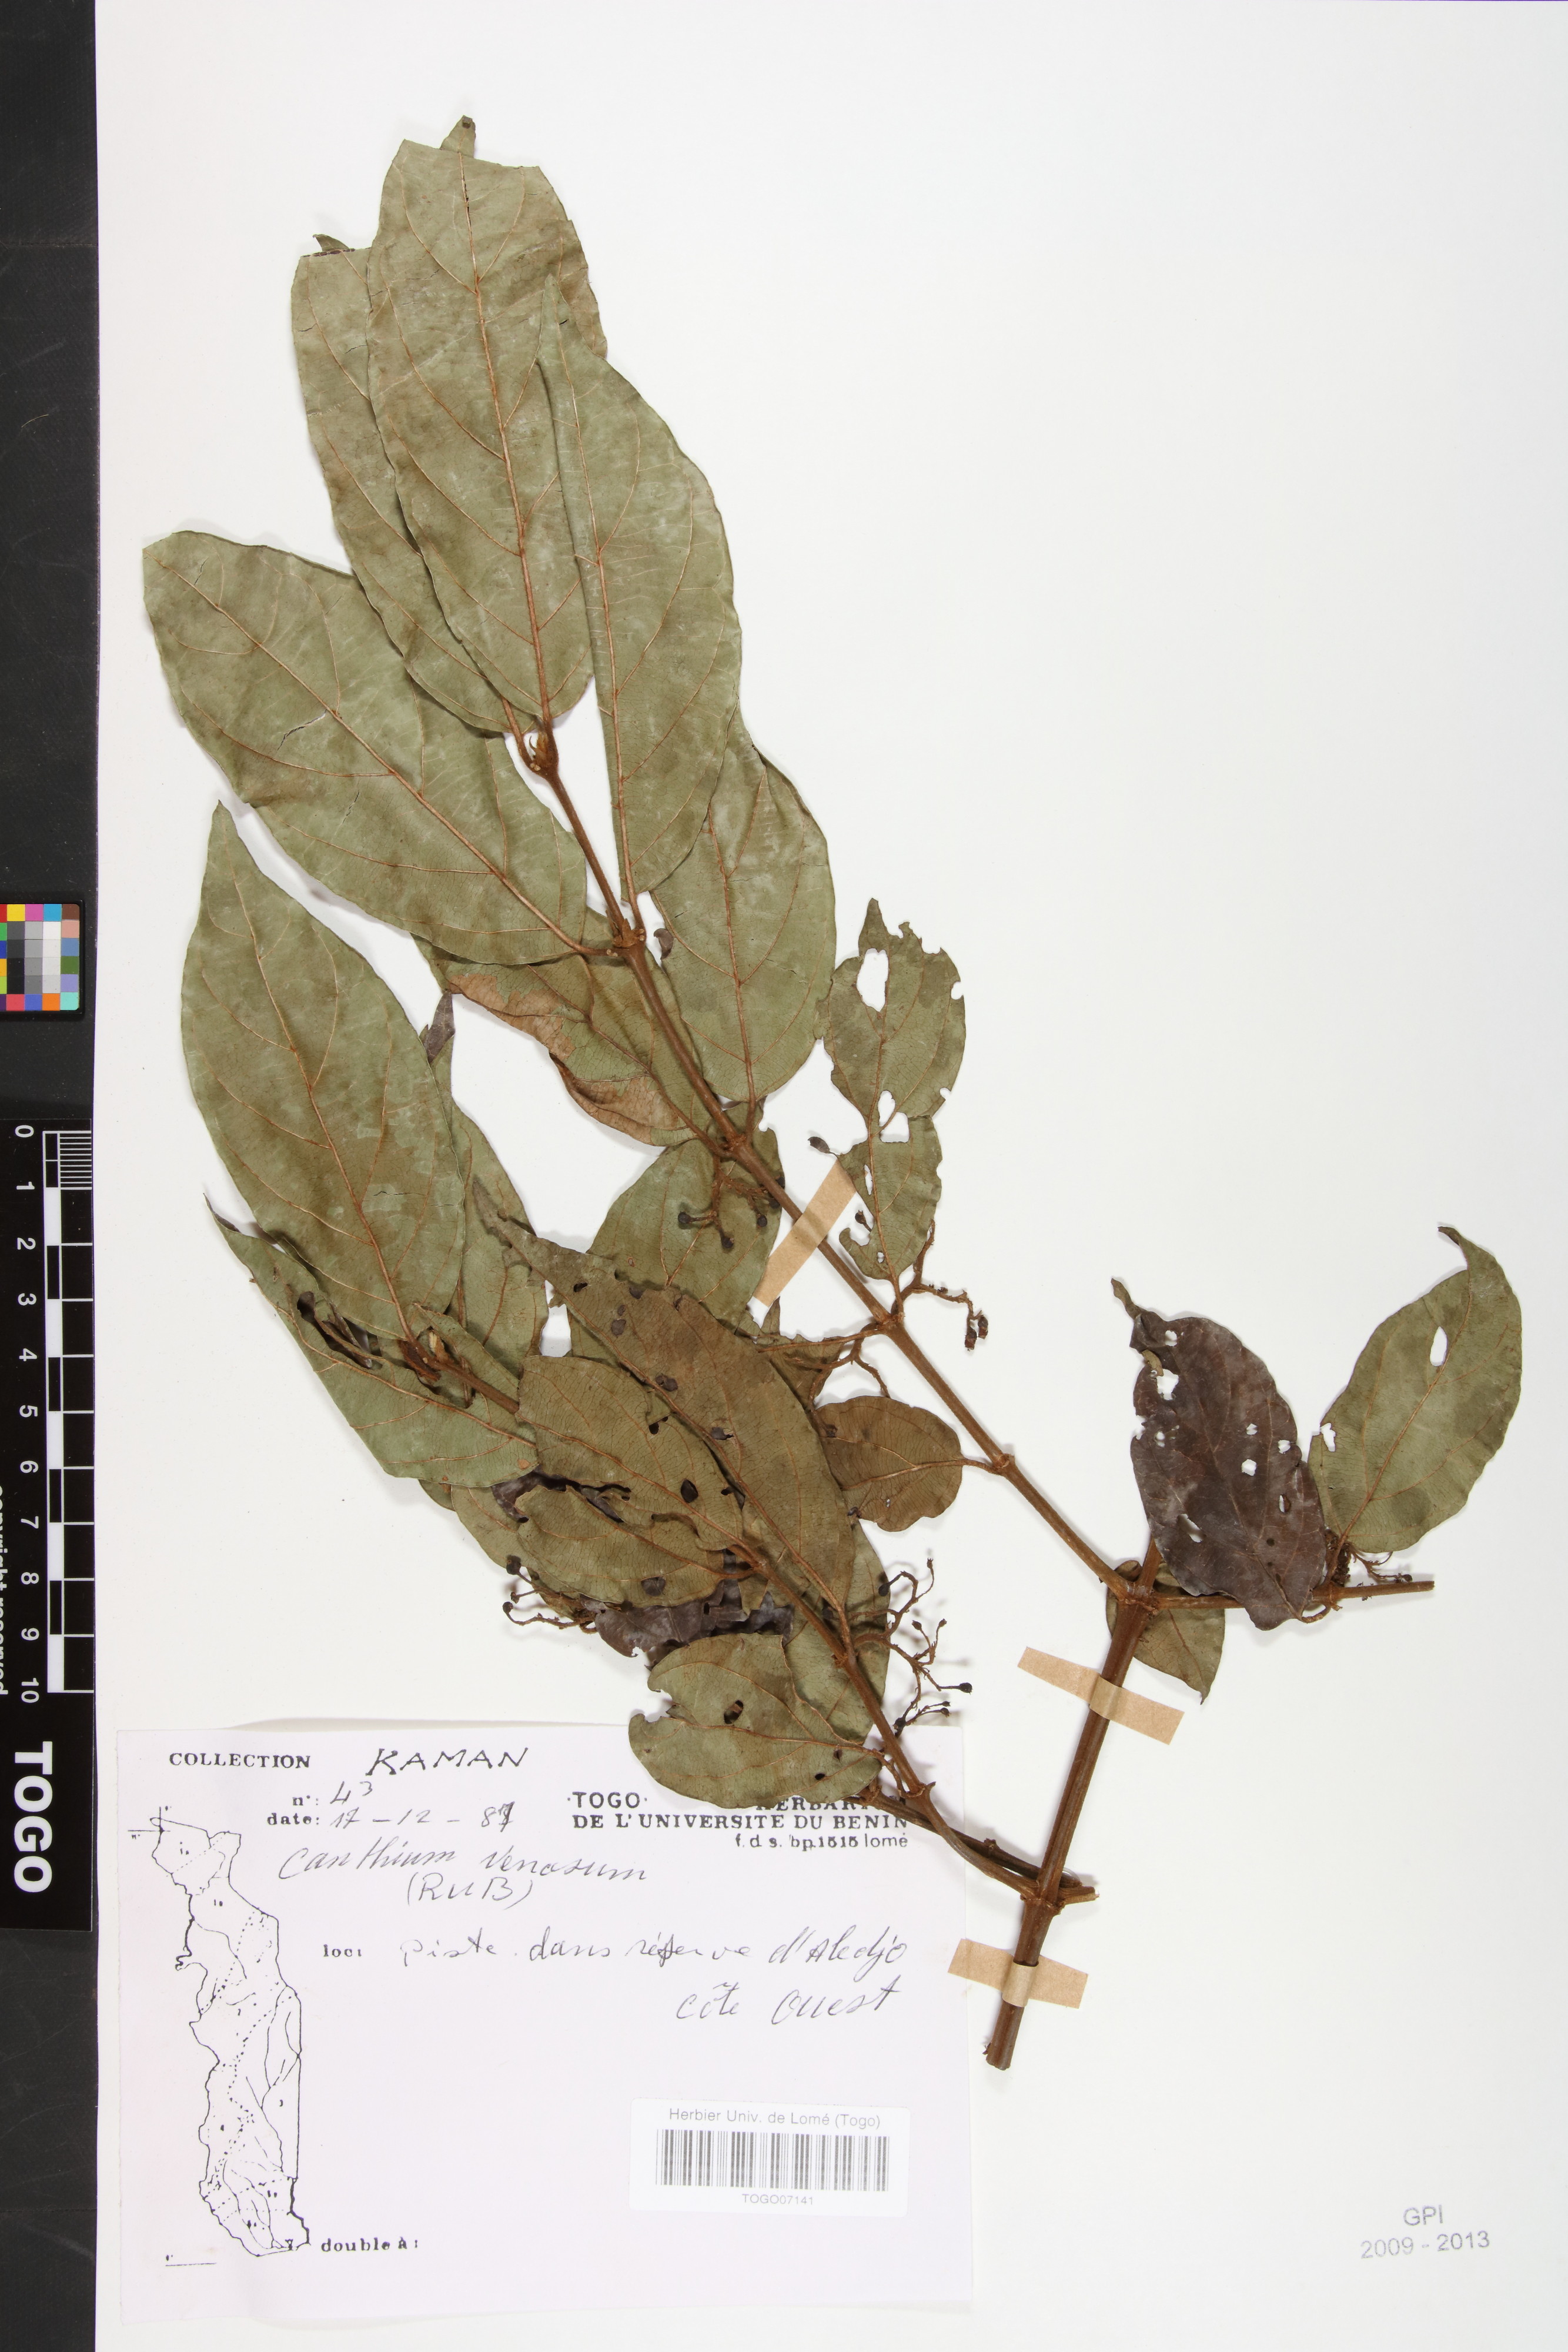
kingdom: Plantae
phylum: Tracheophyta
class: Magnoliopsida
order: Gentianales
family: Rubiaceae
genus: Keetia
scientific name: Keetia venosa
